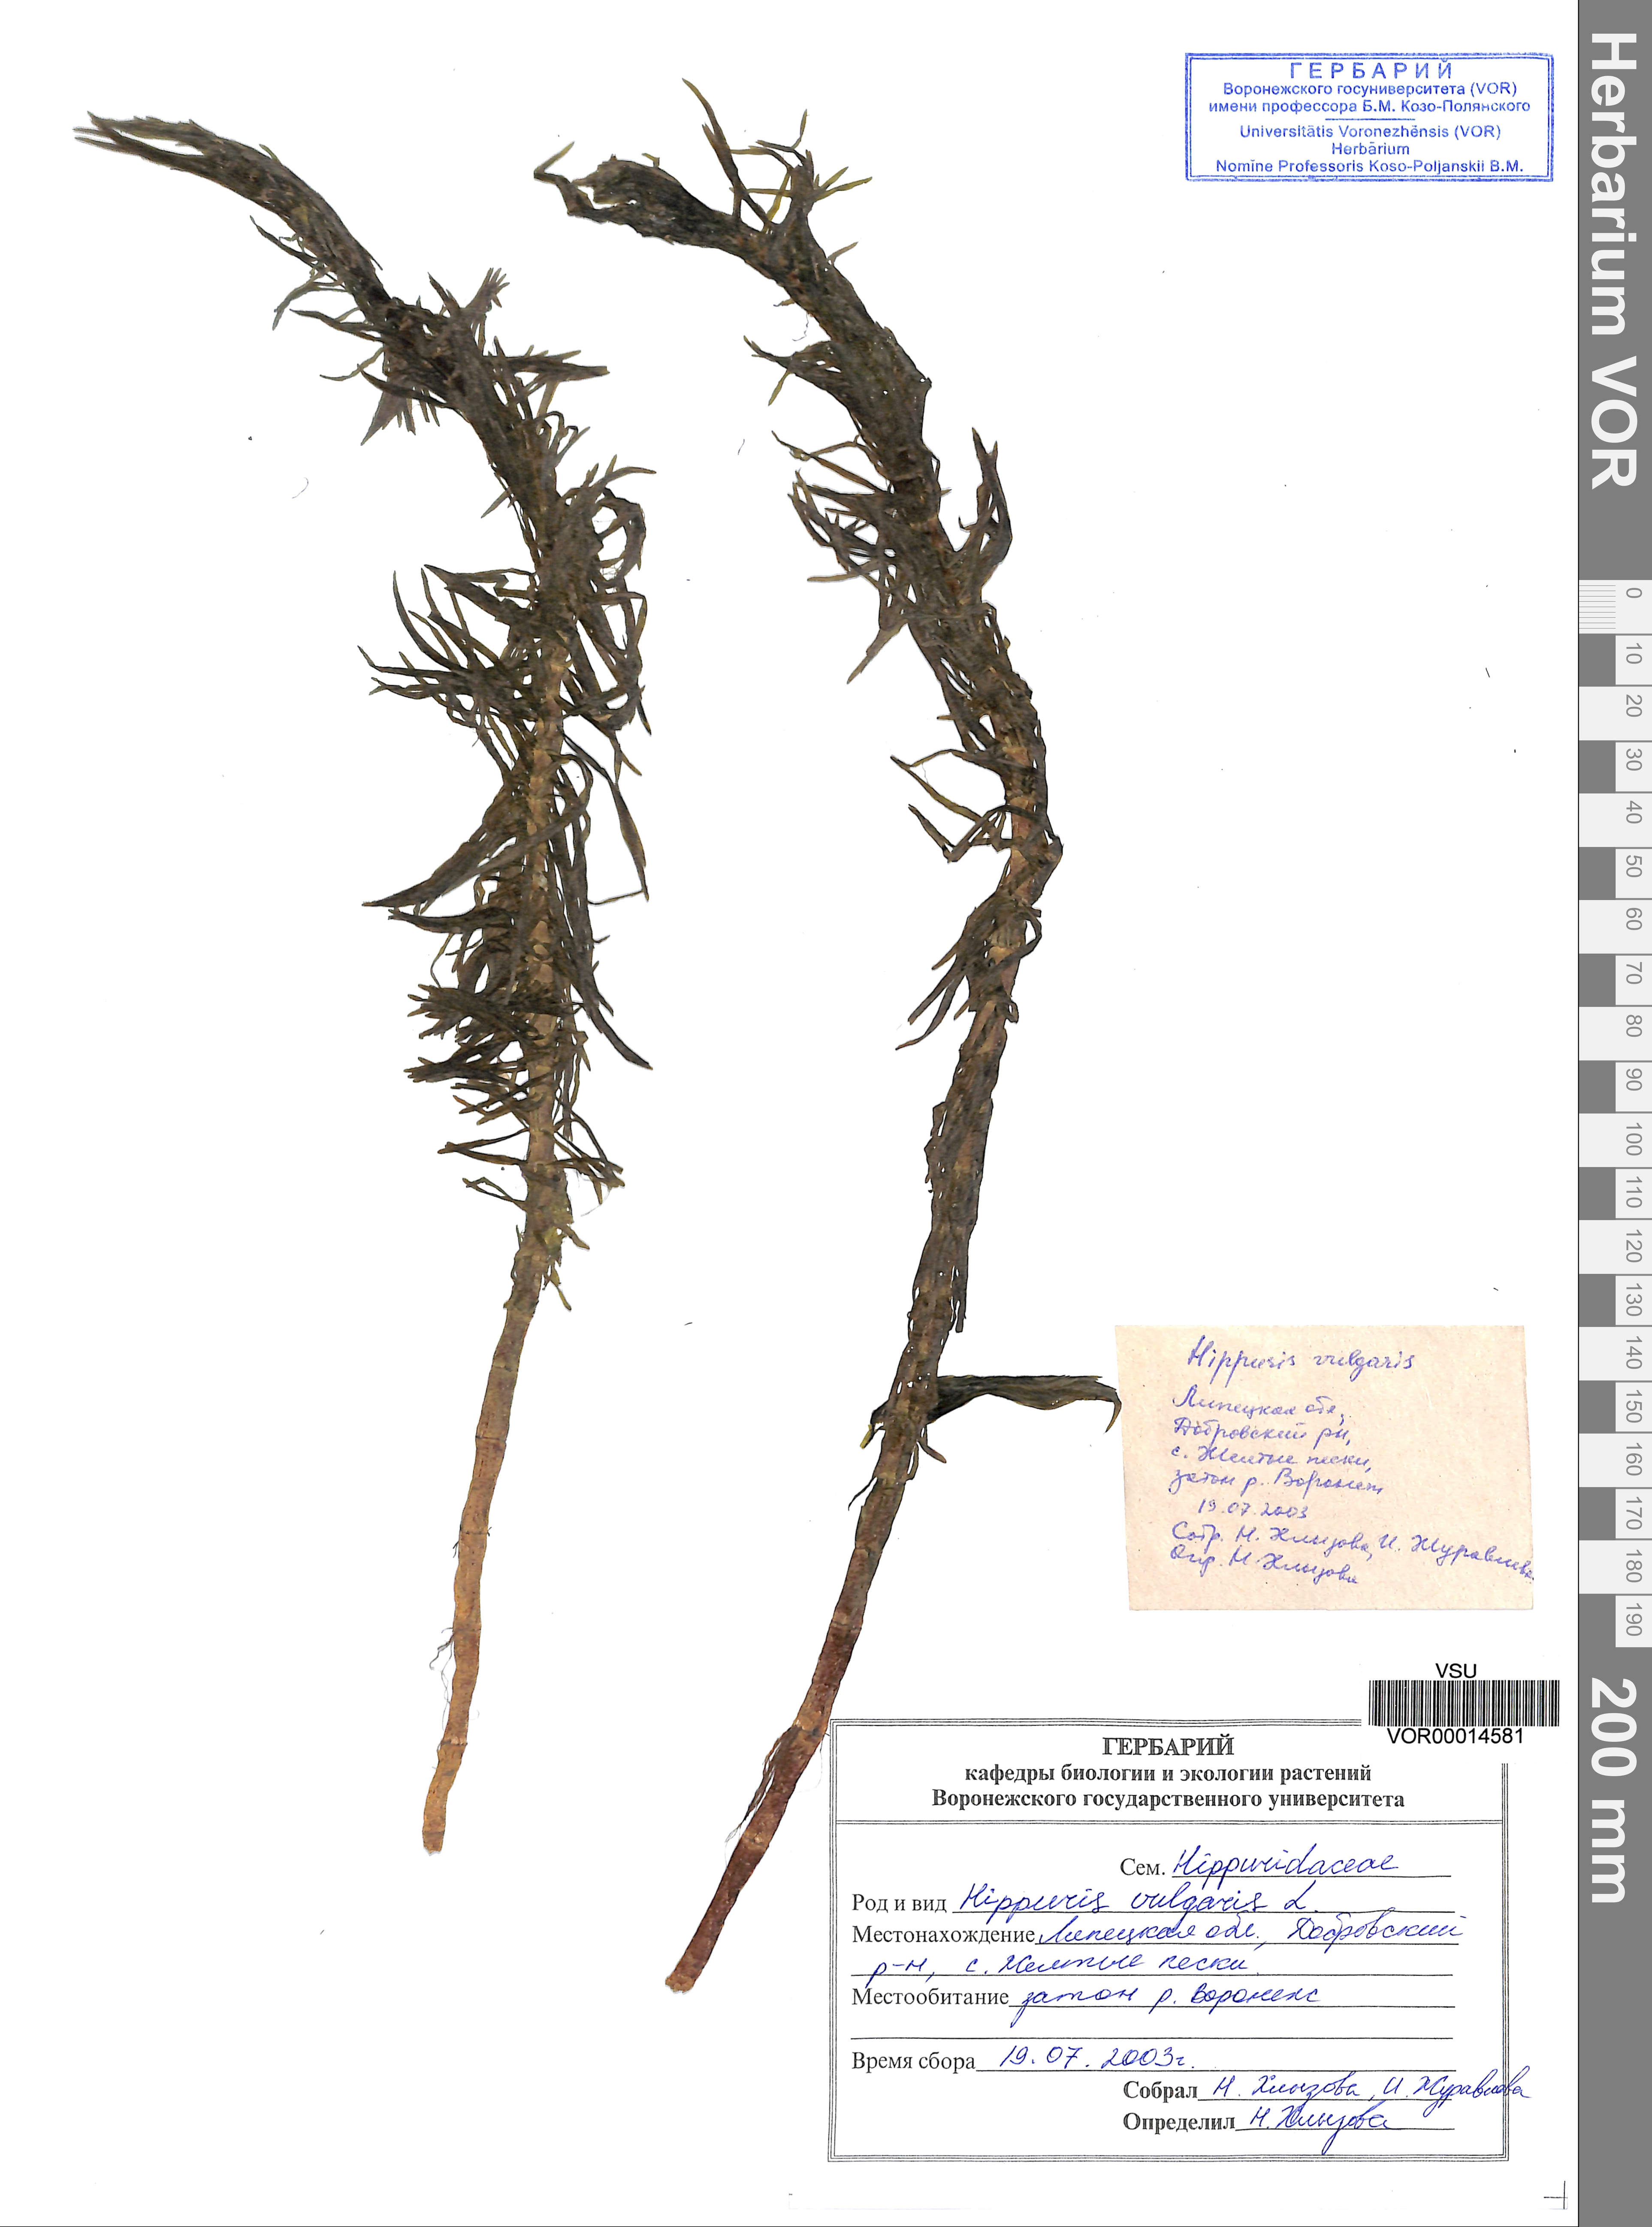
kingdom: Plantae
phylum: Tracheophyta
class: Magnoliopsida
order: Lamiales
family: Plantaginaceae
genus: Hippuris
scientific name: Hippuris vulgaris
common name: Mare's-tail
